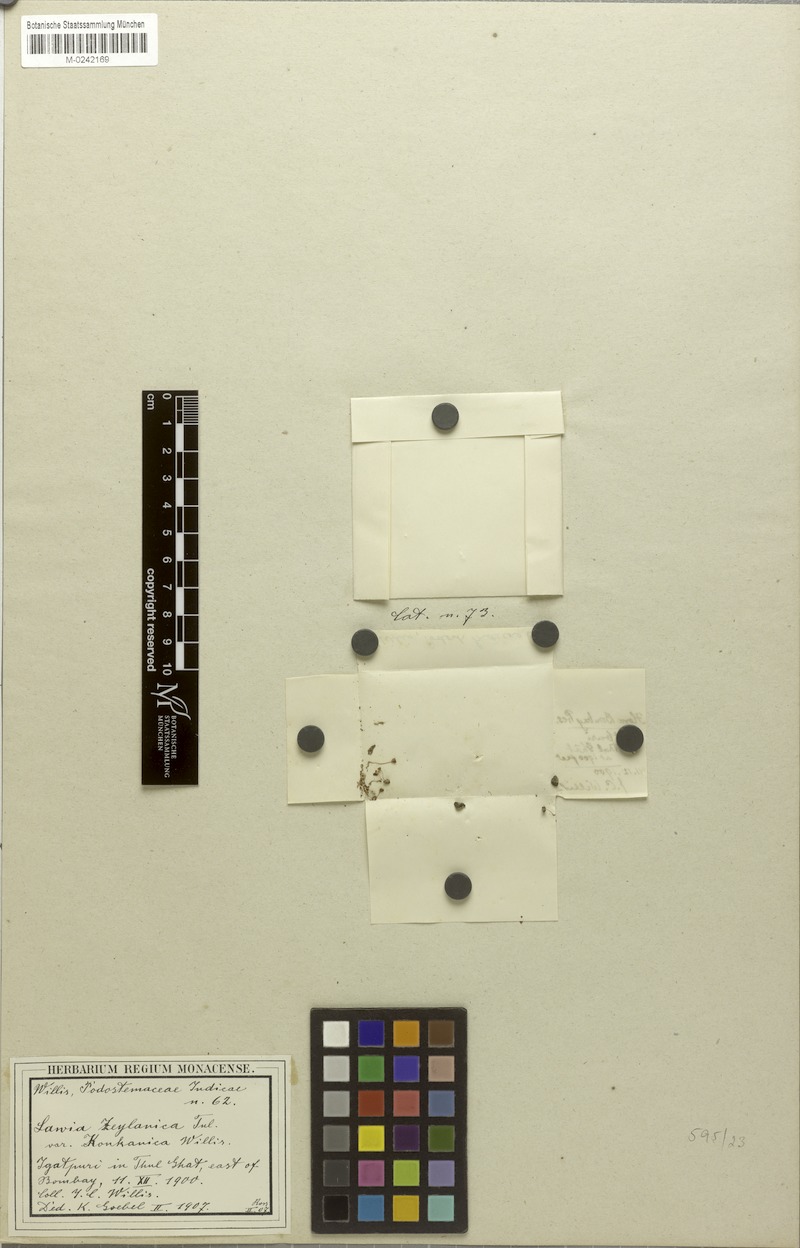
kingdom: Plantae
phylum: Tracheophyta
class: Magnoliopsida
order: Malpighiales
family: Podostemaceae
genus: Dalzellia
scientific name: Dalzellia ceylanica
